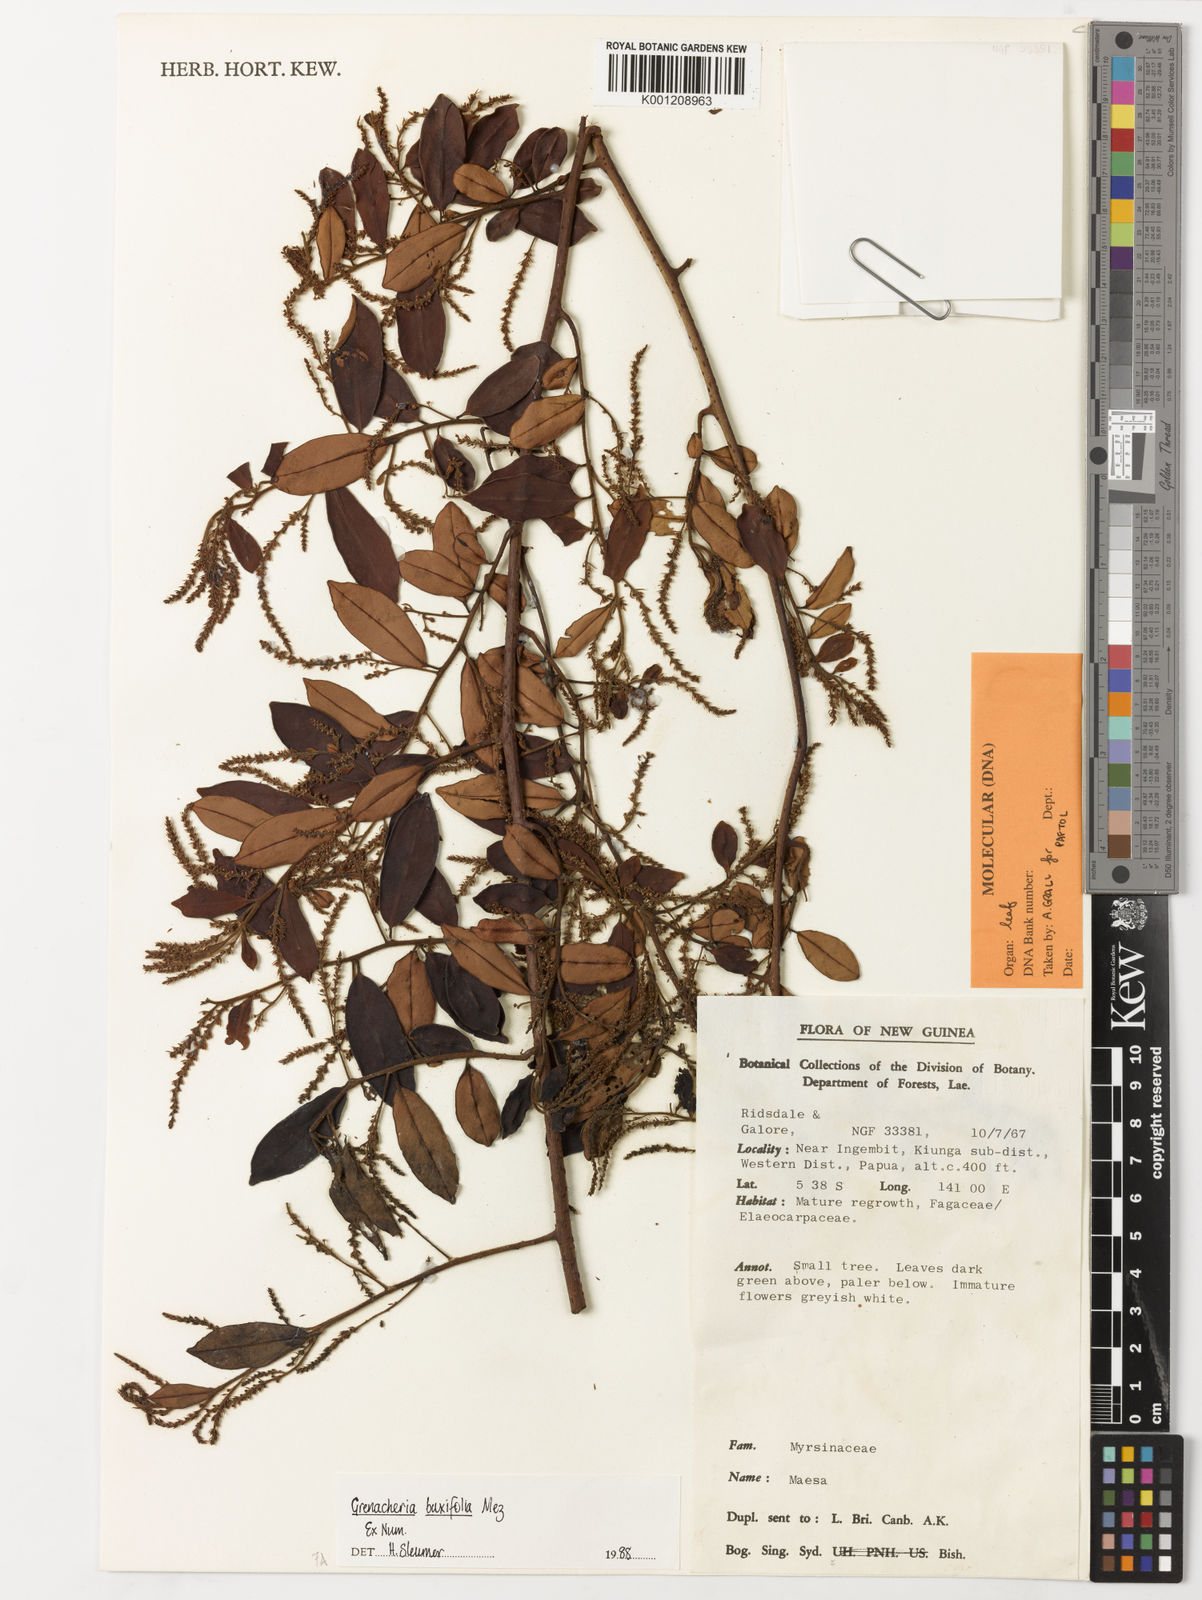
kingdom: Plantae
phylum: Tracheophyta
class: Magnoliopsida
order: Ericales
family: Primulaceae
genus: Grenacheria
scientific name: Grenacheria buxifolia
